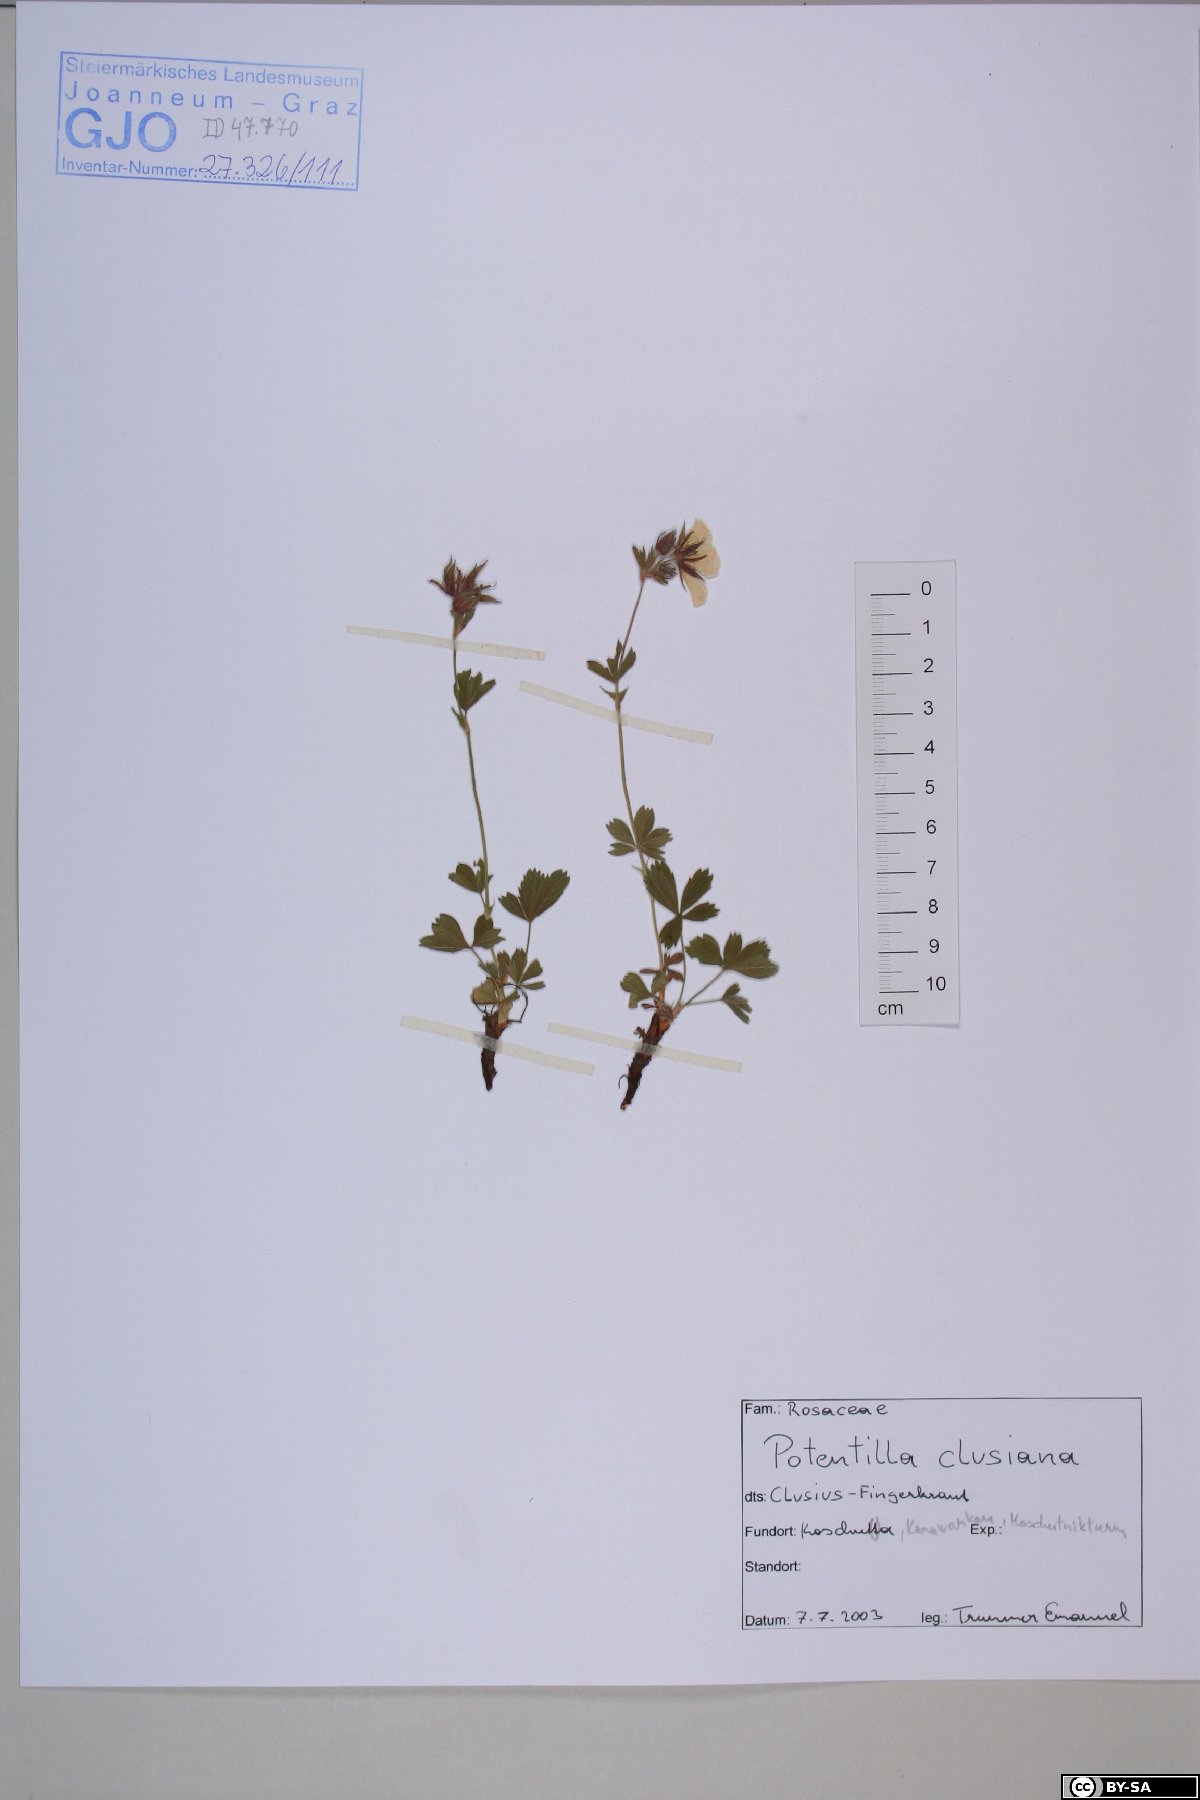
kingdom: Plantae
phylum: Tracheophyta
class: Magnoliopsida
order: Rosales
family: Rosaceae
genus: Potentilla
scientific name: Potentilla clusiana
